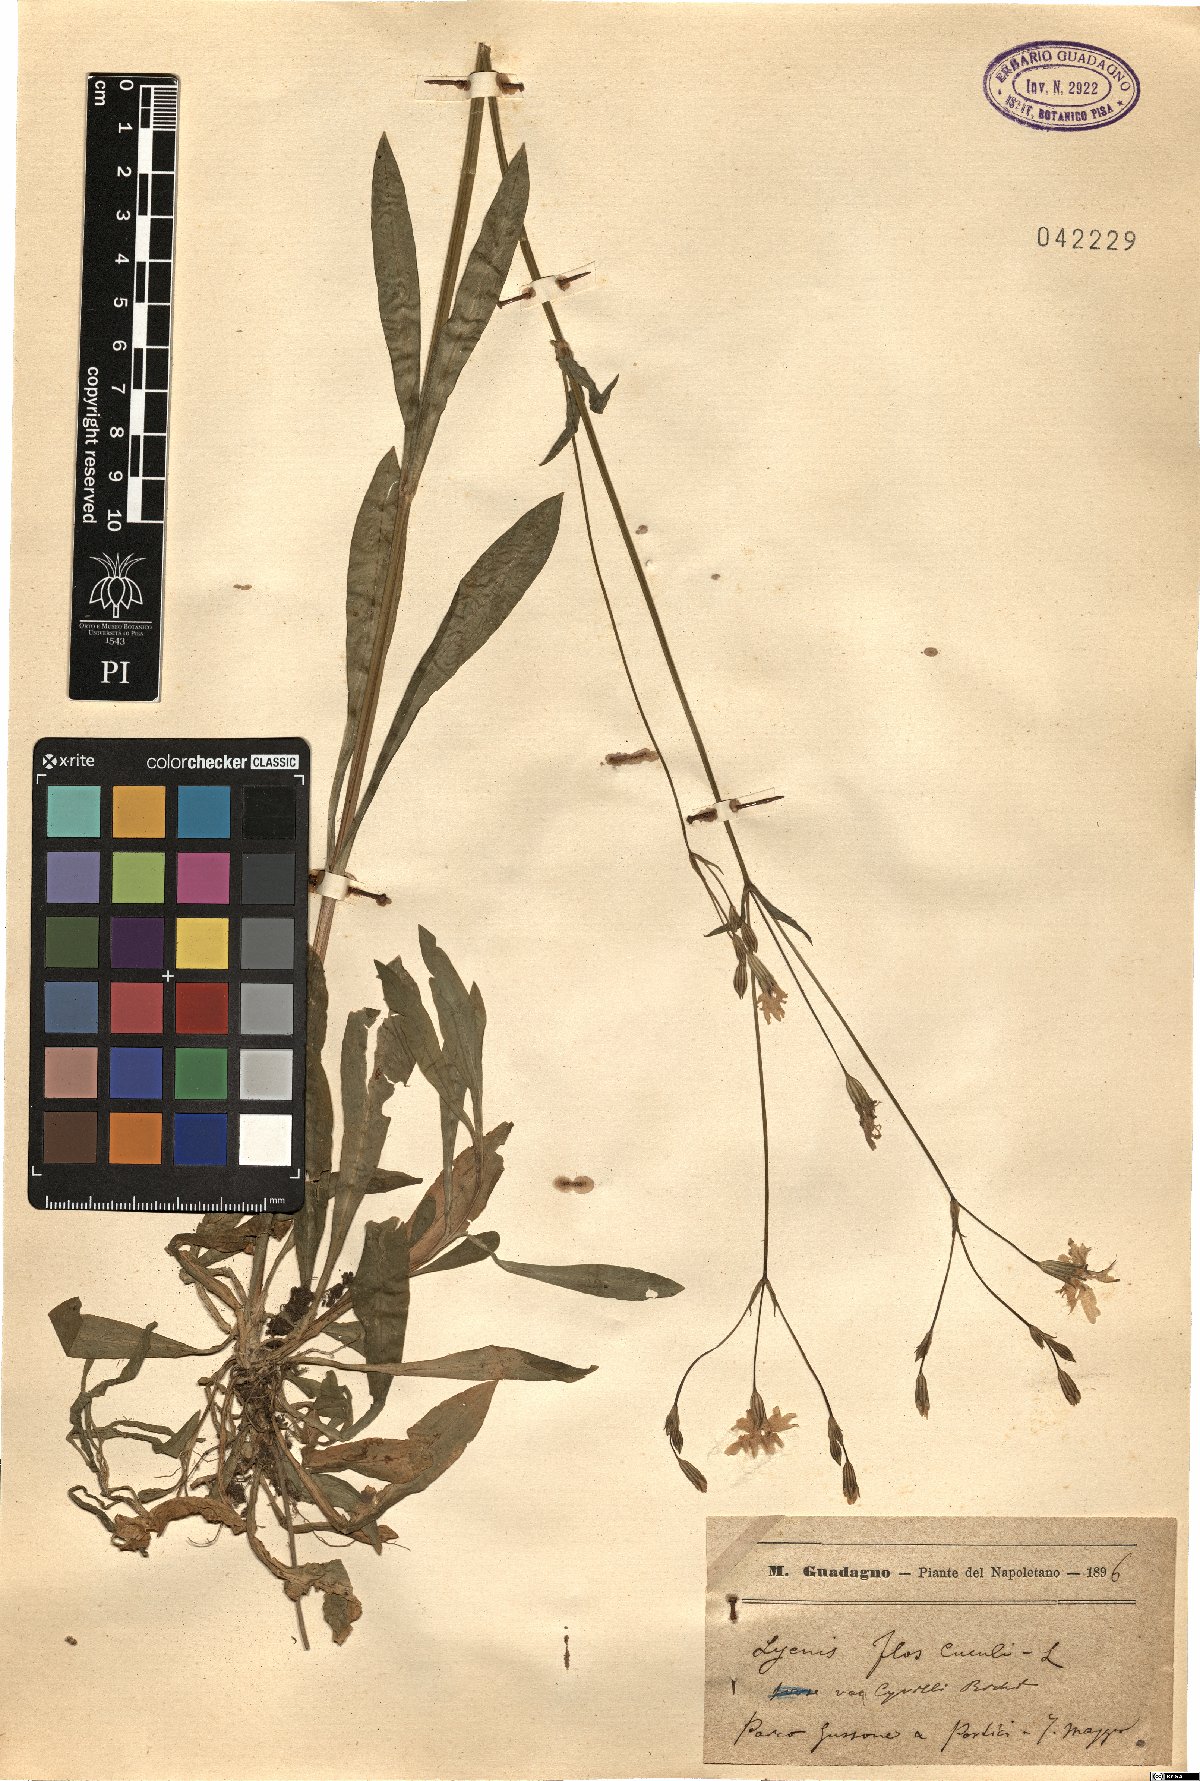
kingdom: Plantae
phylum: Tracheophyta
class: Magnoliopsida
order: Caryophyllales
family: Caryophyllaceae
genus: Silene
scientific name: Silene flos-cuculi
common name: Ragged-robin
